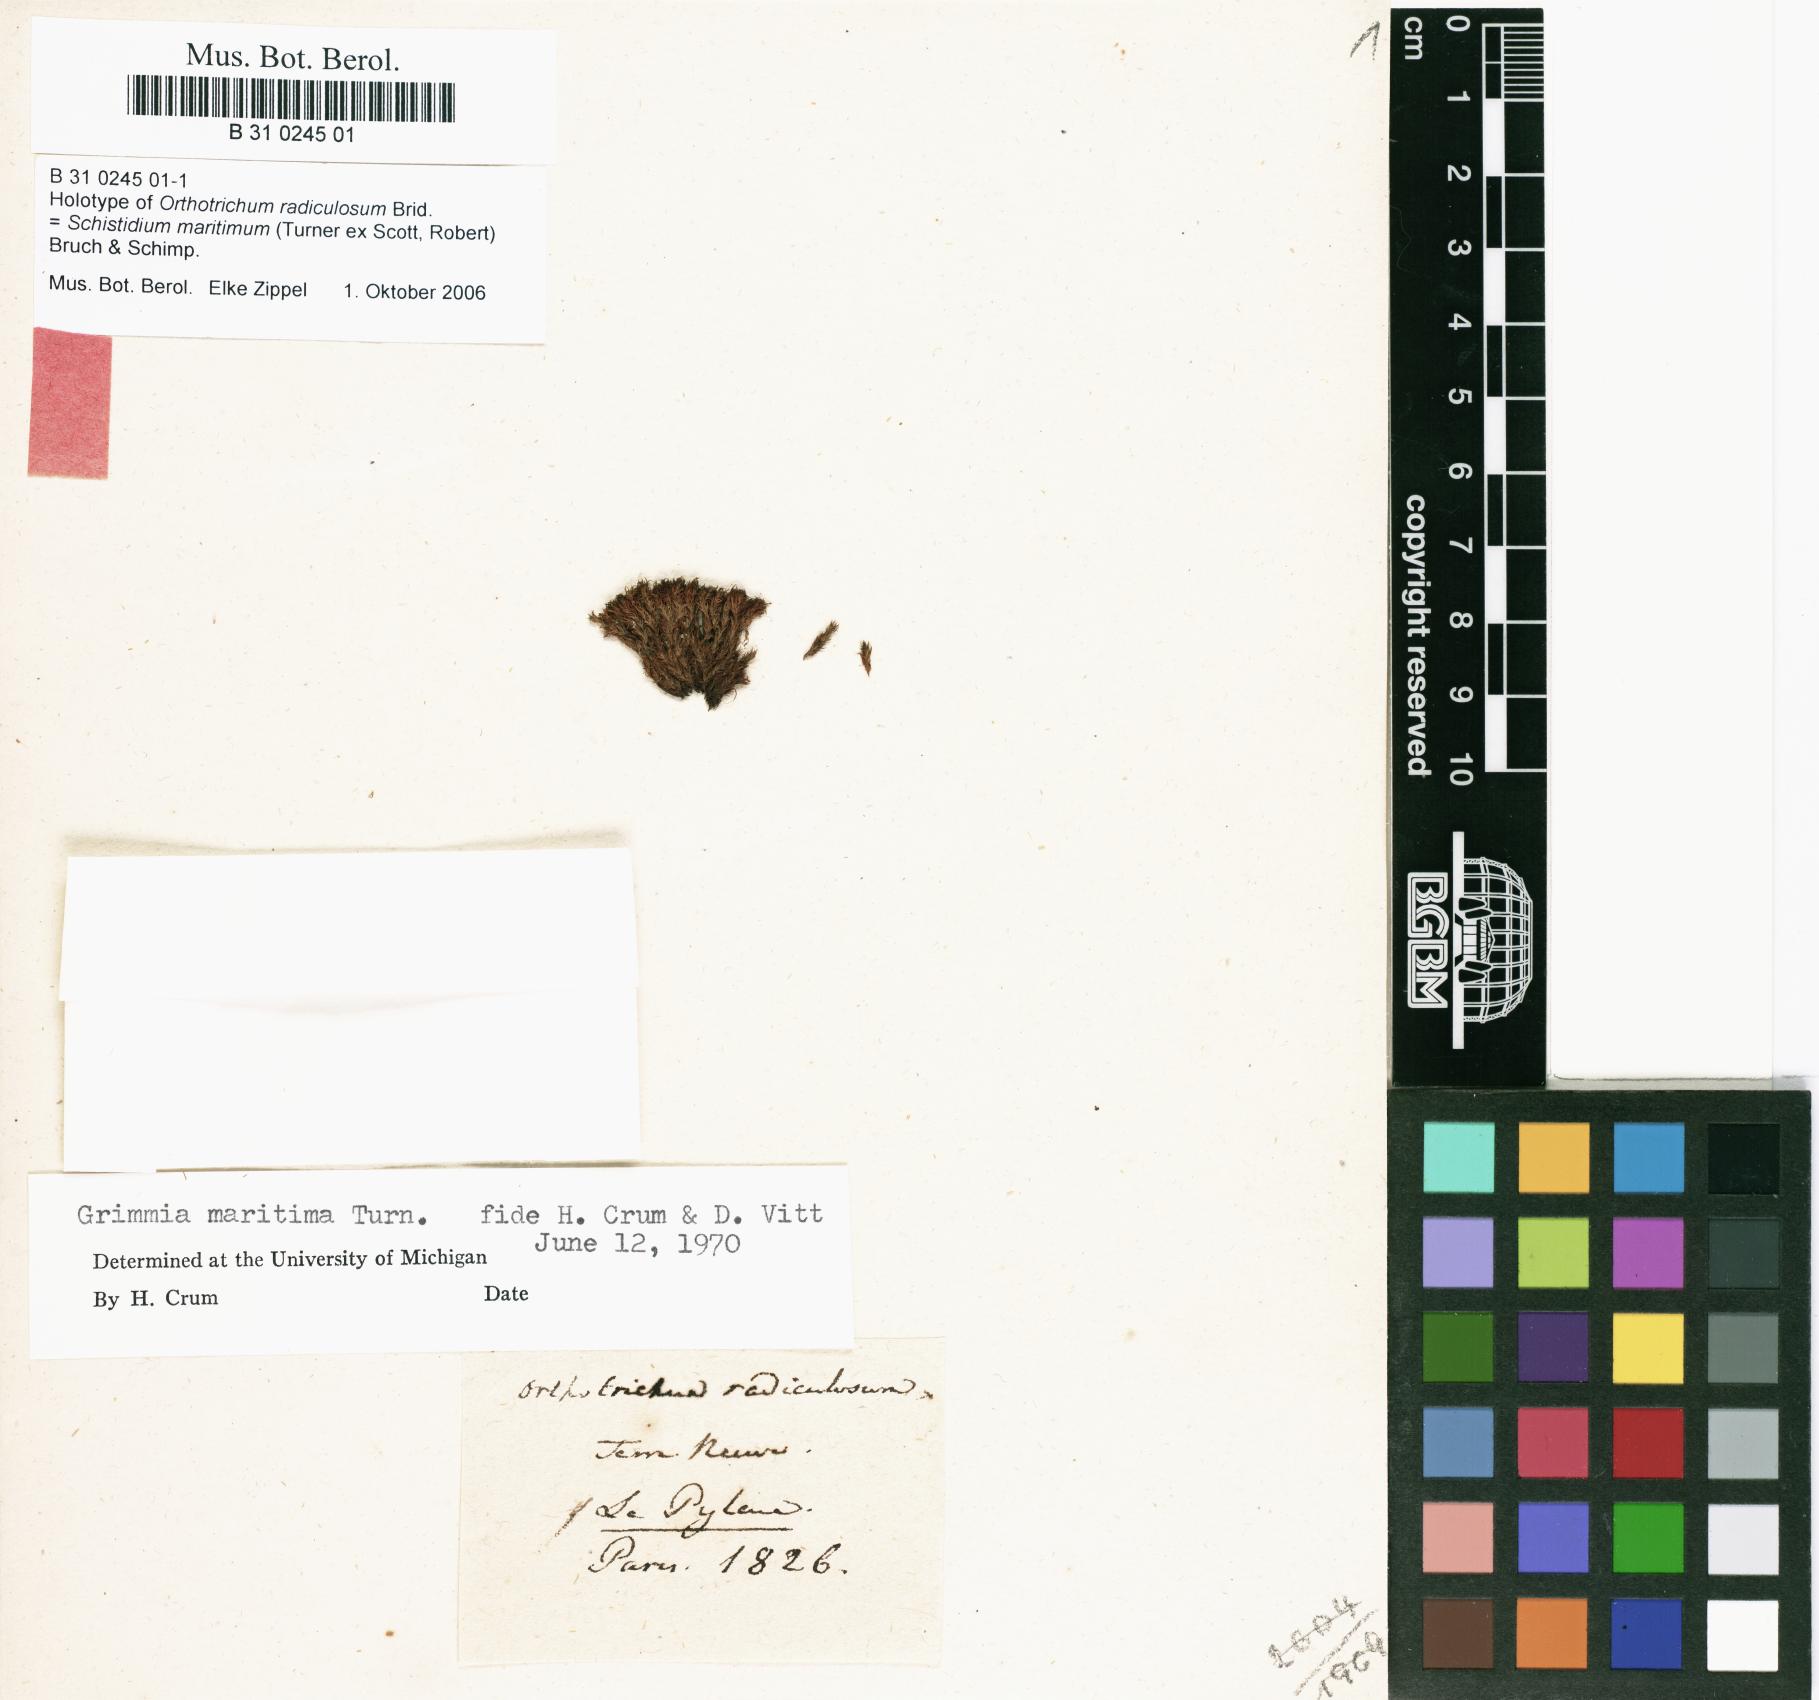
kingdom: Plantae
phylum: Bryophyta
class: Bryopsida
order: Grimmiales
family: Grimmiaceae
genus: Schistidium
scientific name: Schistidium maritimum
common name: Seaside bloom moss
